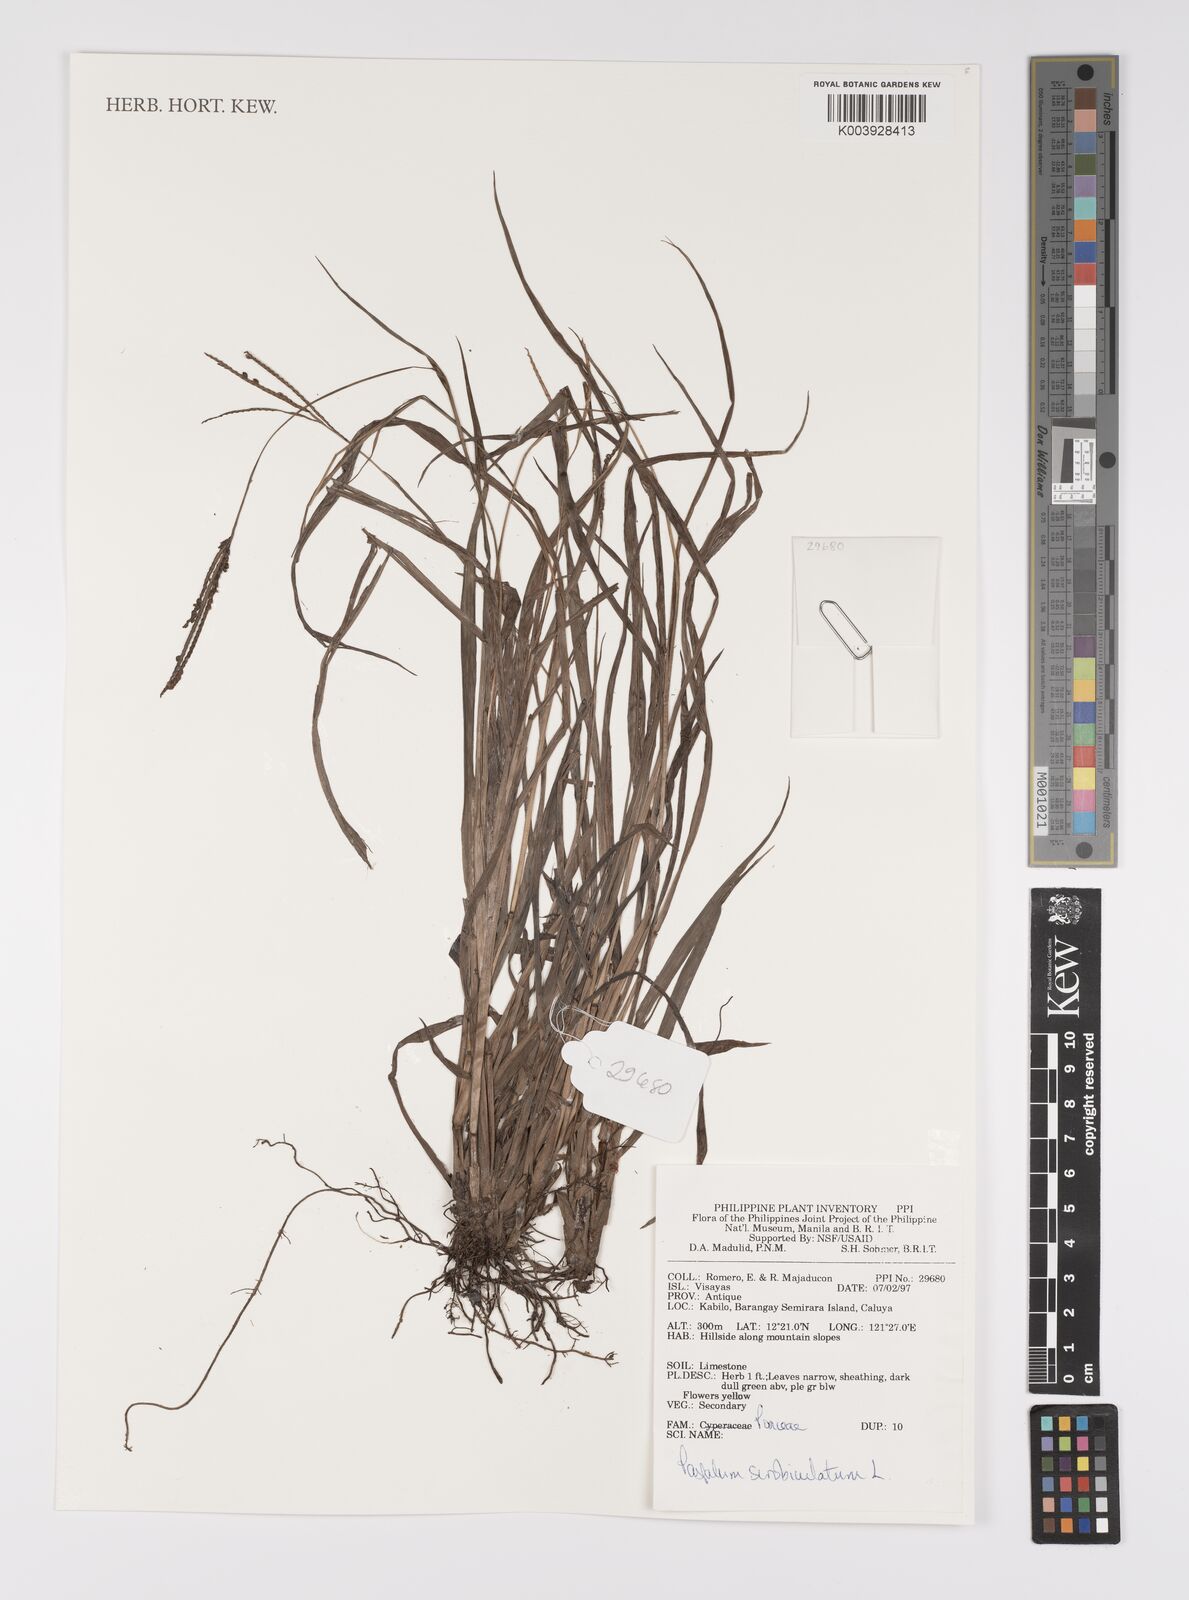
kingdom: Plantae
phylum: Tracheophyta
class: Liliopsida
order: Poales
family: Poaceae
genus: Paspalum
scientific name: Paspalum scrobiculatum
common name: Kodo millet
